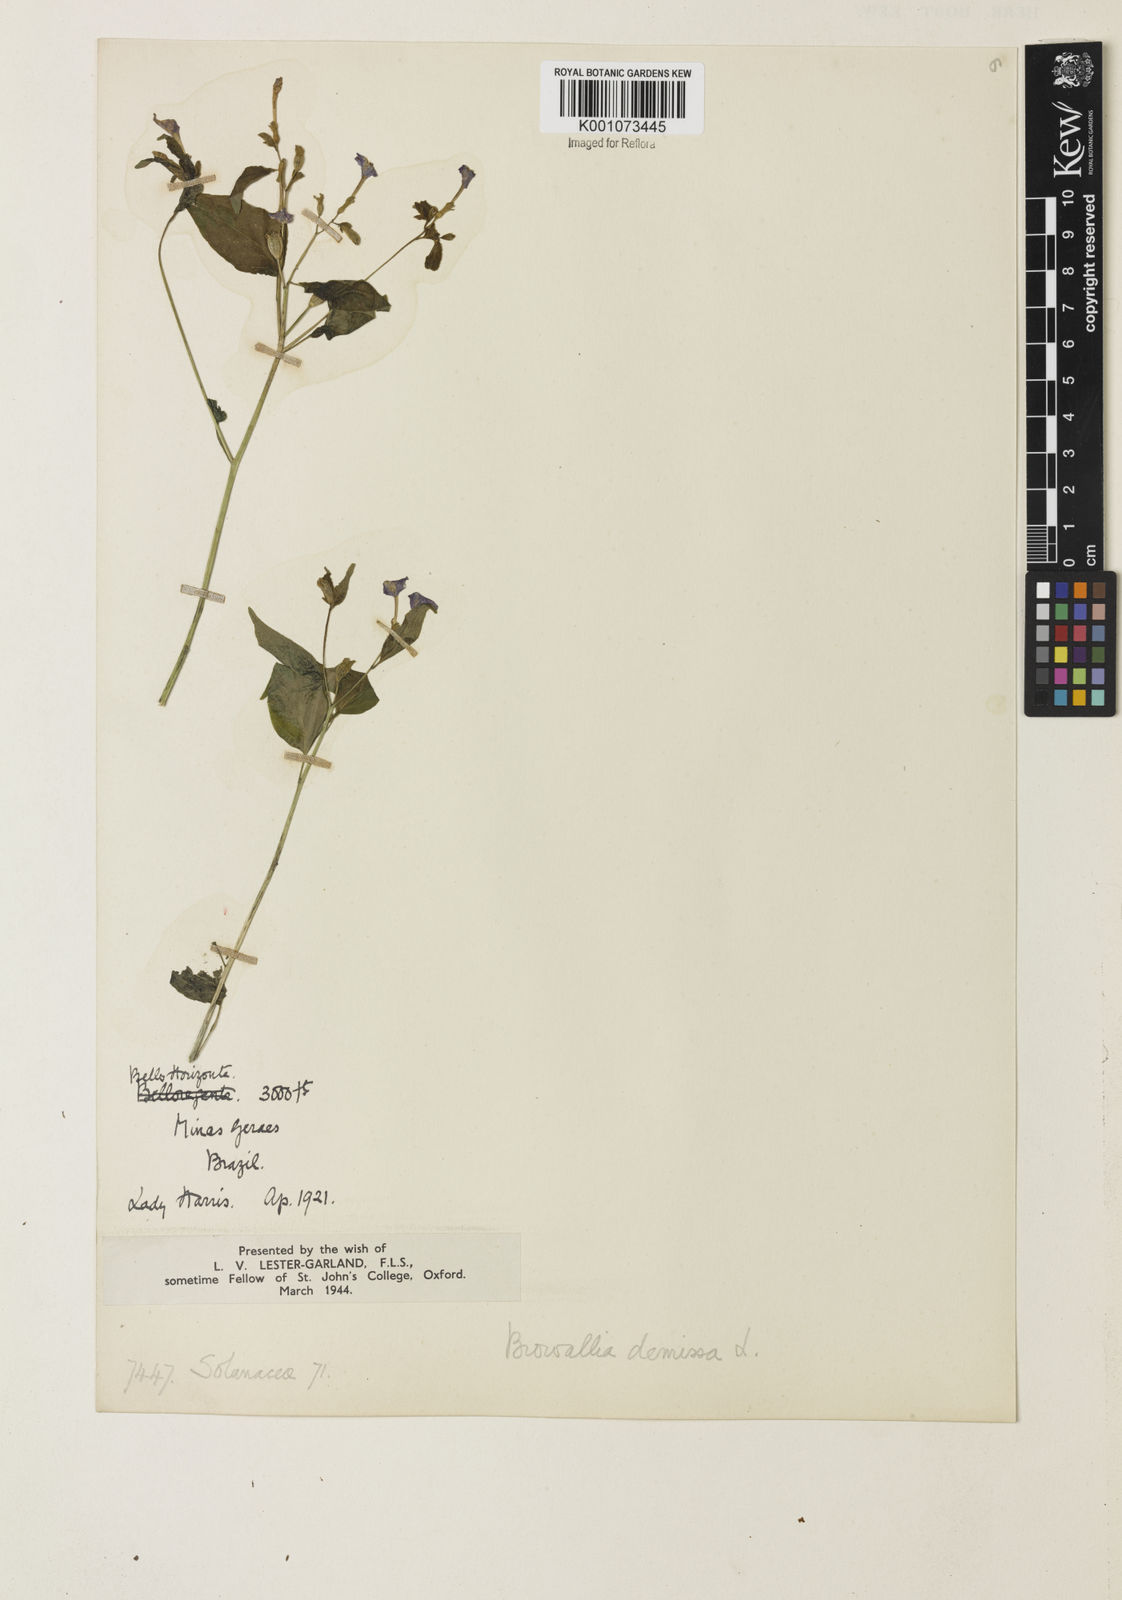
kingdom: Plantae
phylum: Tracheophyta
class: Magnoliopsida
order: Solanales
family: Solanaceae
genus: Browallia
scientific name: Browallia americana
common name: Jamaican forget-me-not
